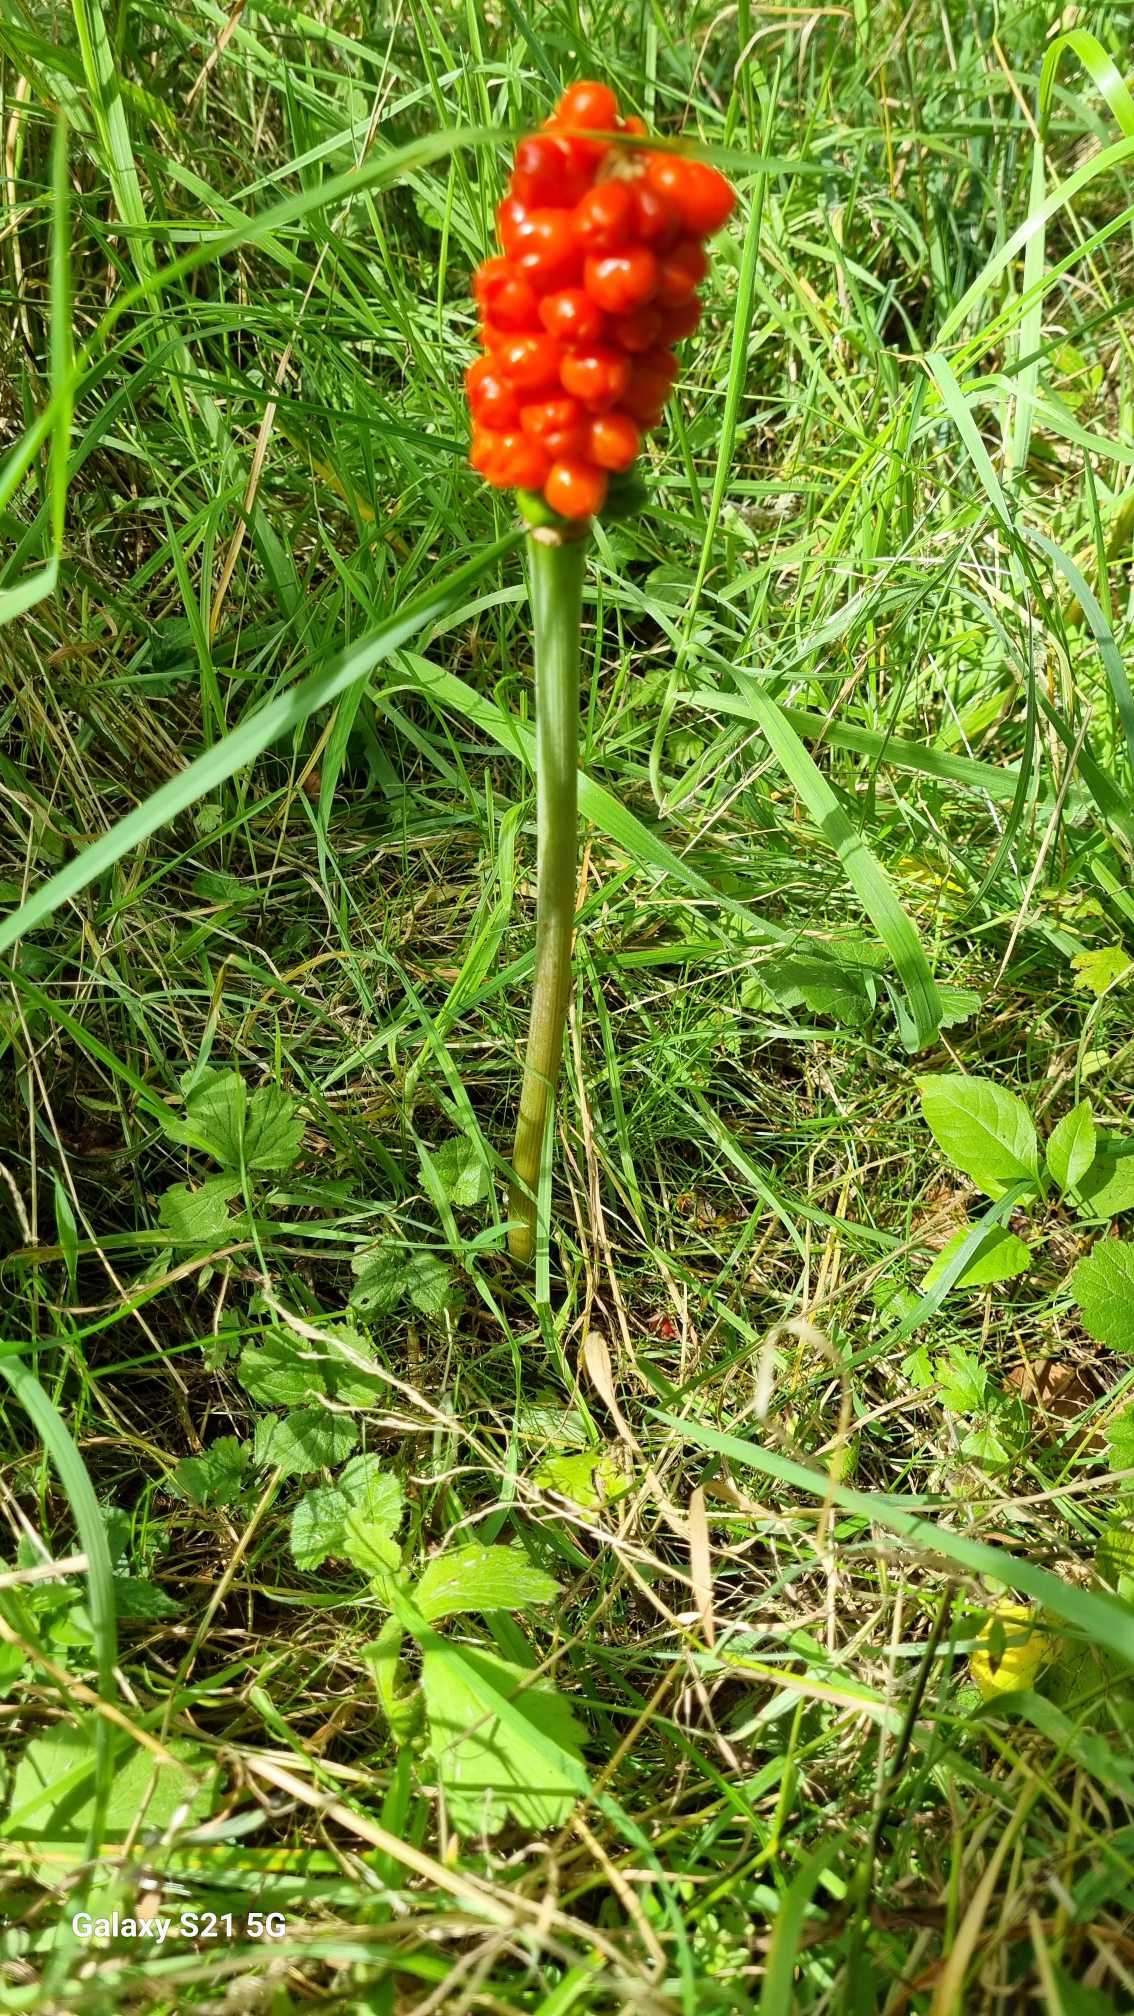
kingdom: Plantae
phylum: Tracheophyta
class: Liliopsida
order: Alismatales
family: Araceae
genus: Arum
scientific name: Arum
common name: Arumslægten
